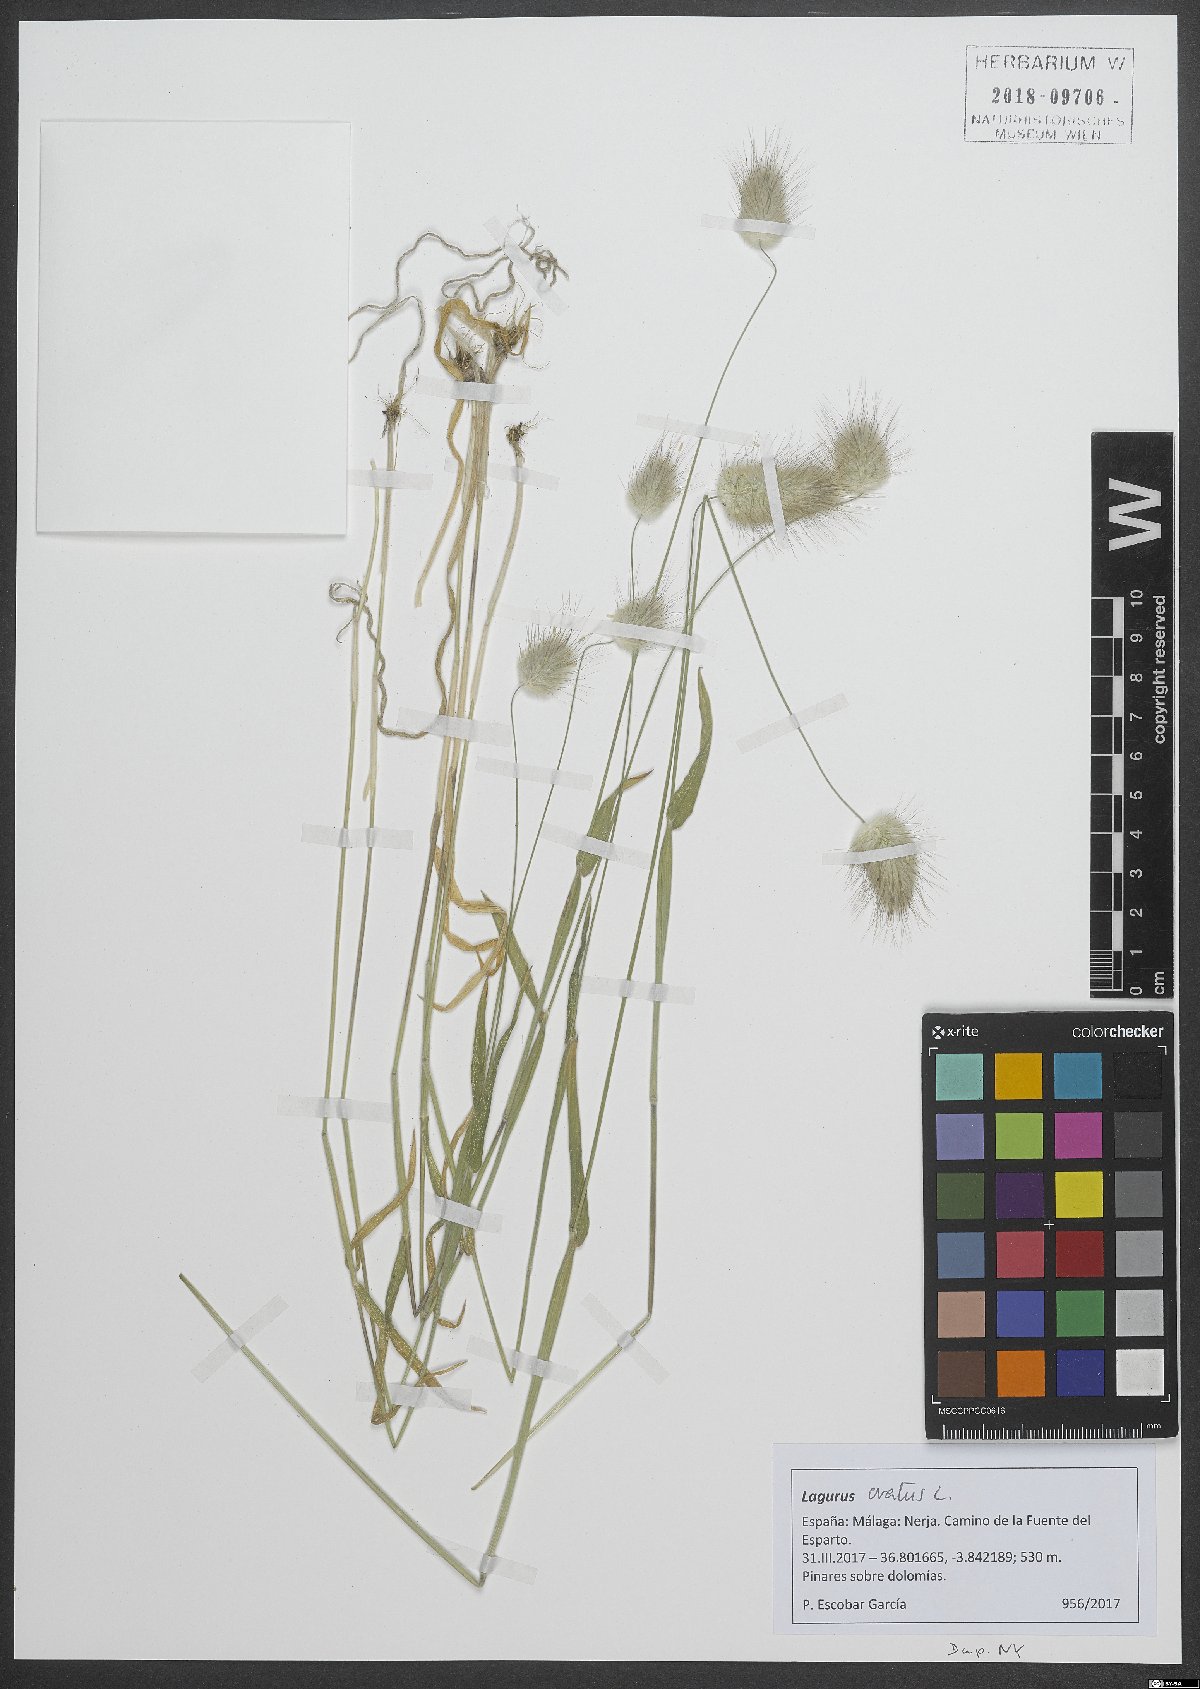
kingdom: Plantae
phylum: Tracheophyta
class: Liliopsida
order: Poales
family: Poaceae
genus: Lagurus
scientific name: Lagurus ovatus
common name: Hare's-tail
